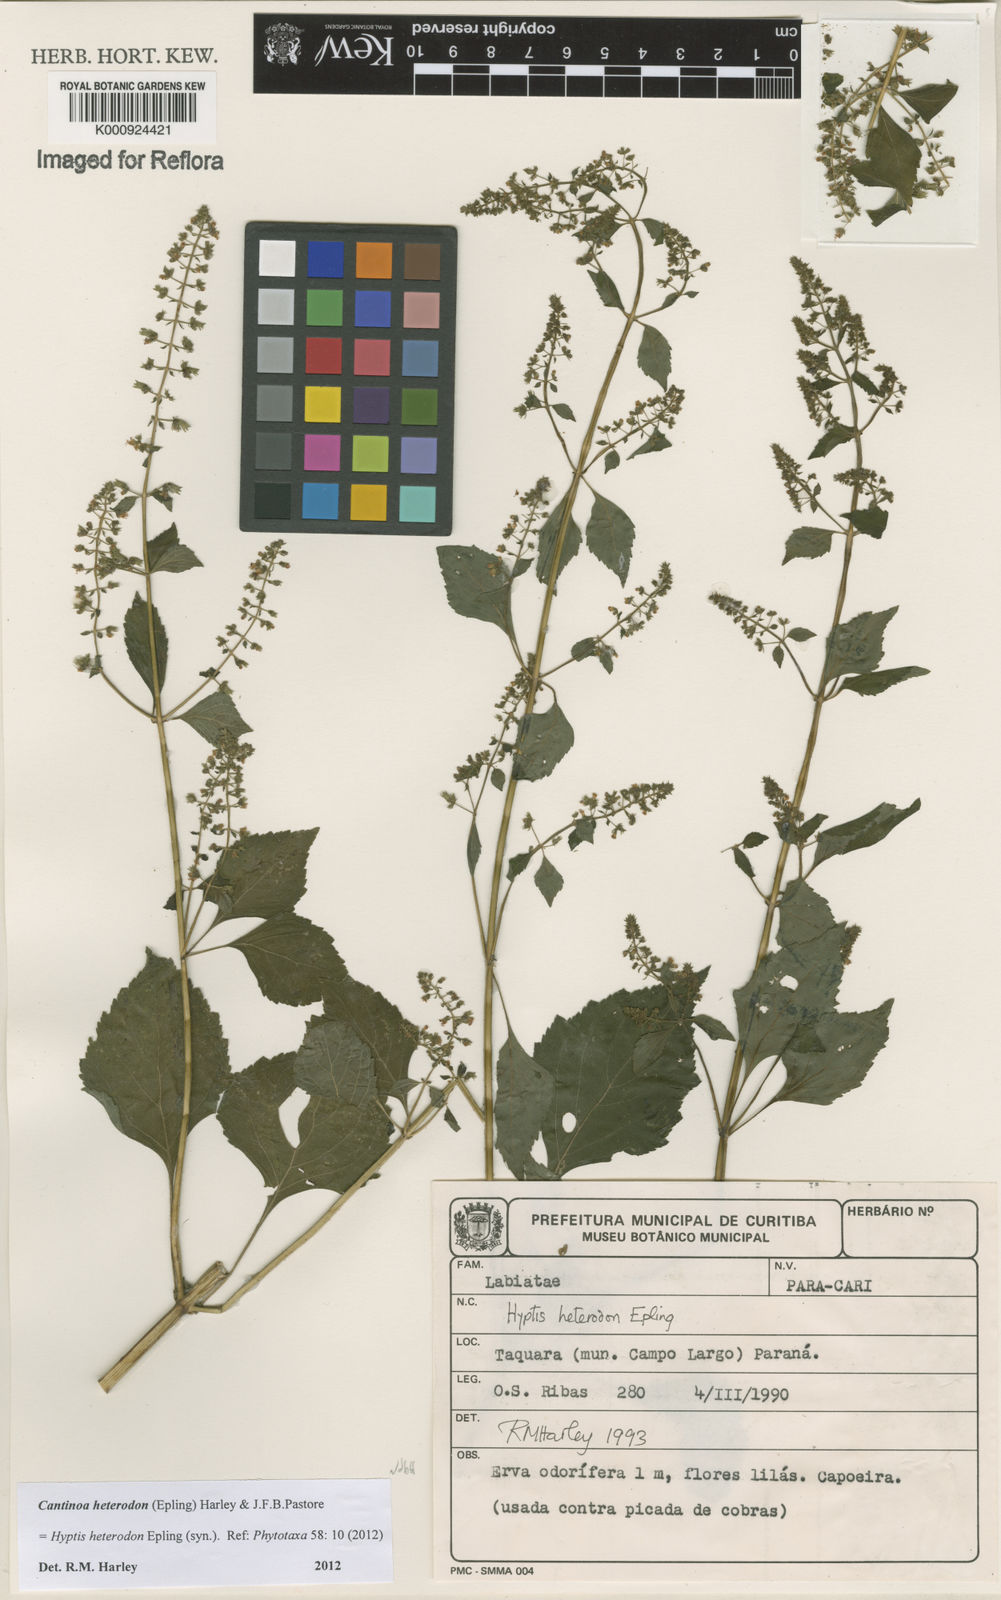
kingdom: Plantae
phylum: Tracheophyta
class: Magnoliopsida
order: Lamiales
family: Lamiaceae
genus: Cantinoa
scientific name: Cantinoa heterodon
